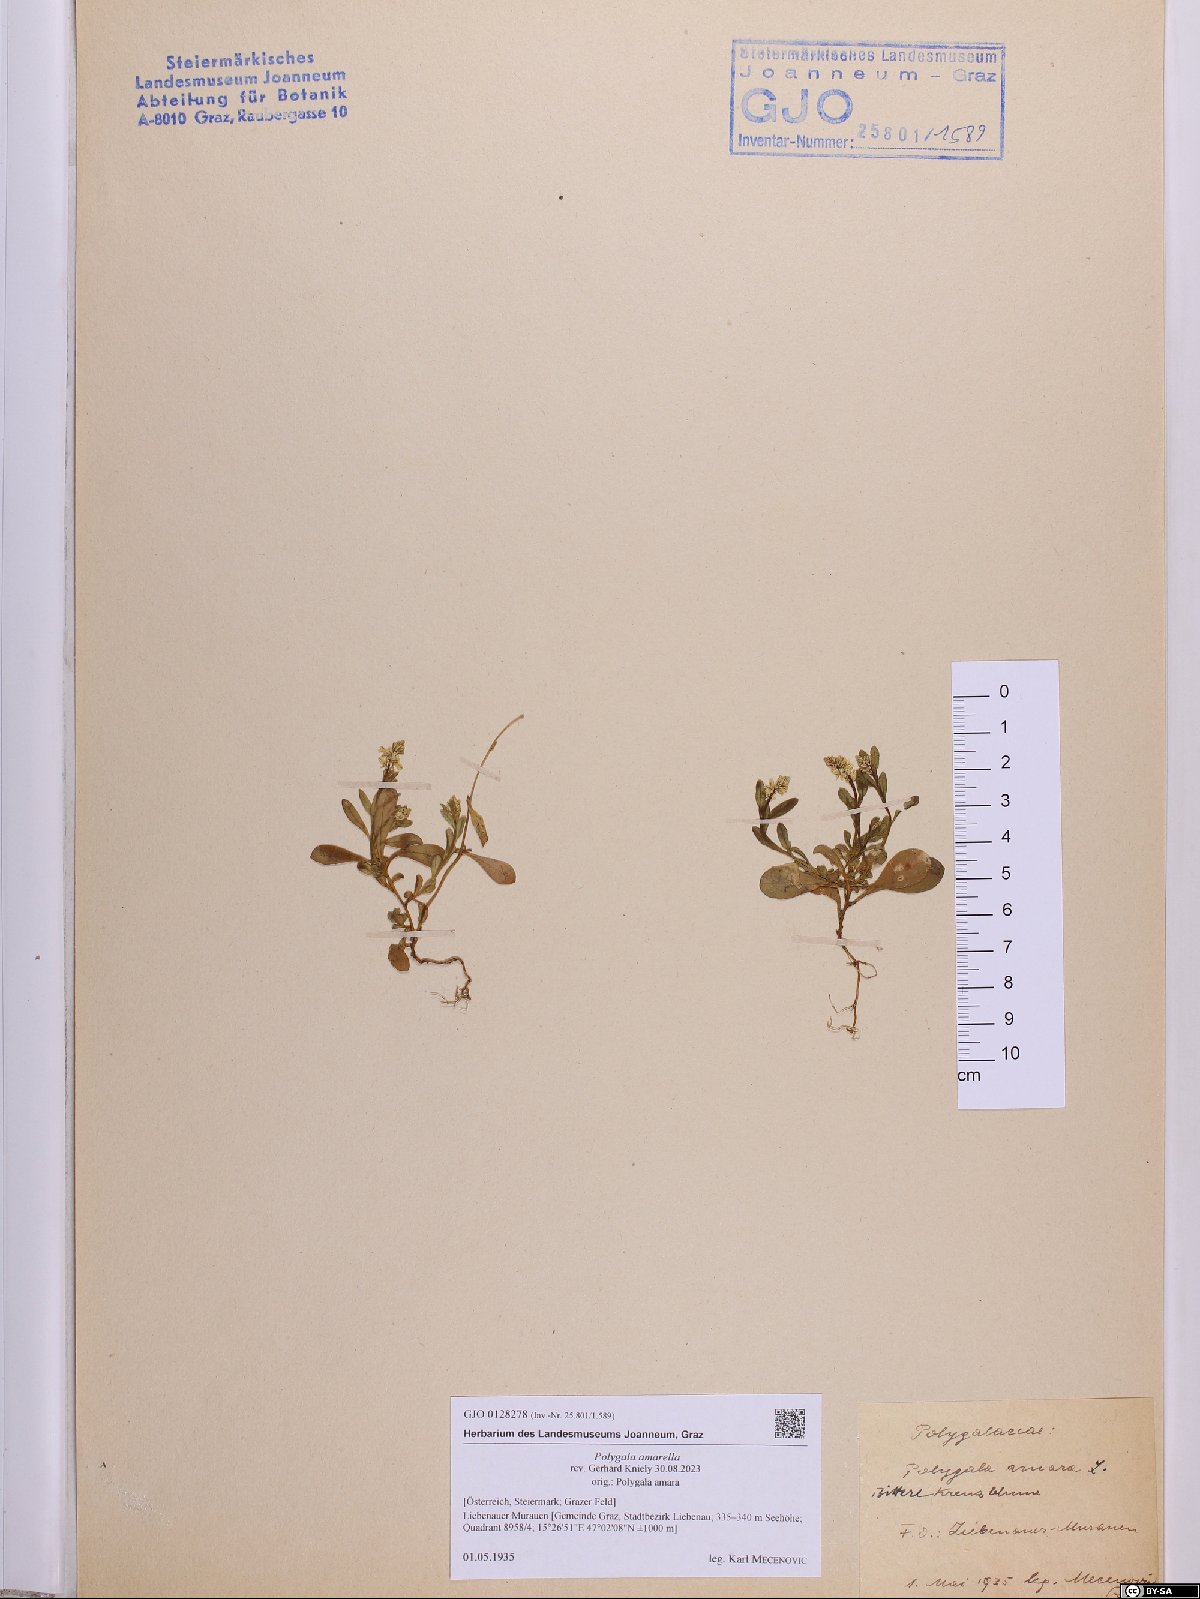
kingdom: Plantae
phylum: Tracheophyta
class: Magnoliopsida
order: Fabales
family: Polygalaceae
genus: Polygala
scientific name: Polygala amarella
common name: Dwarf milkwort
